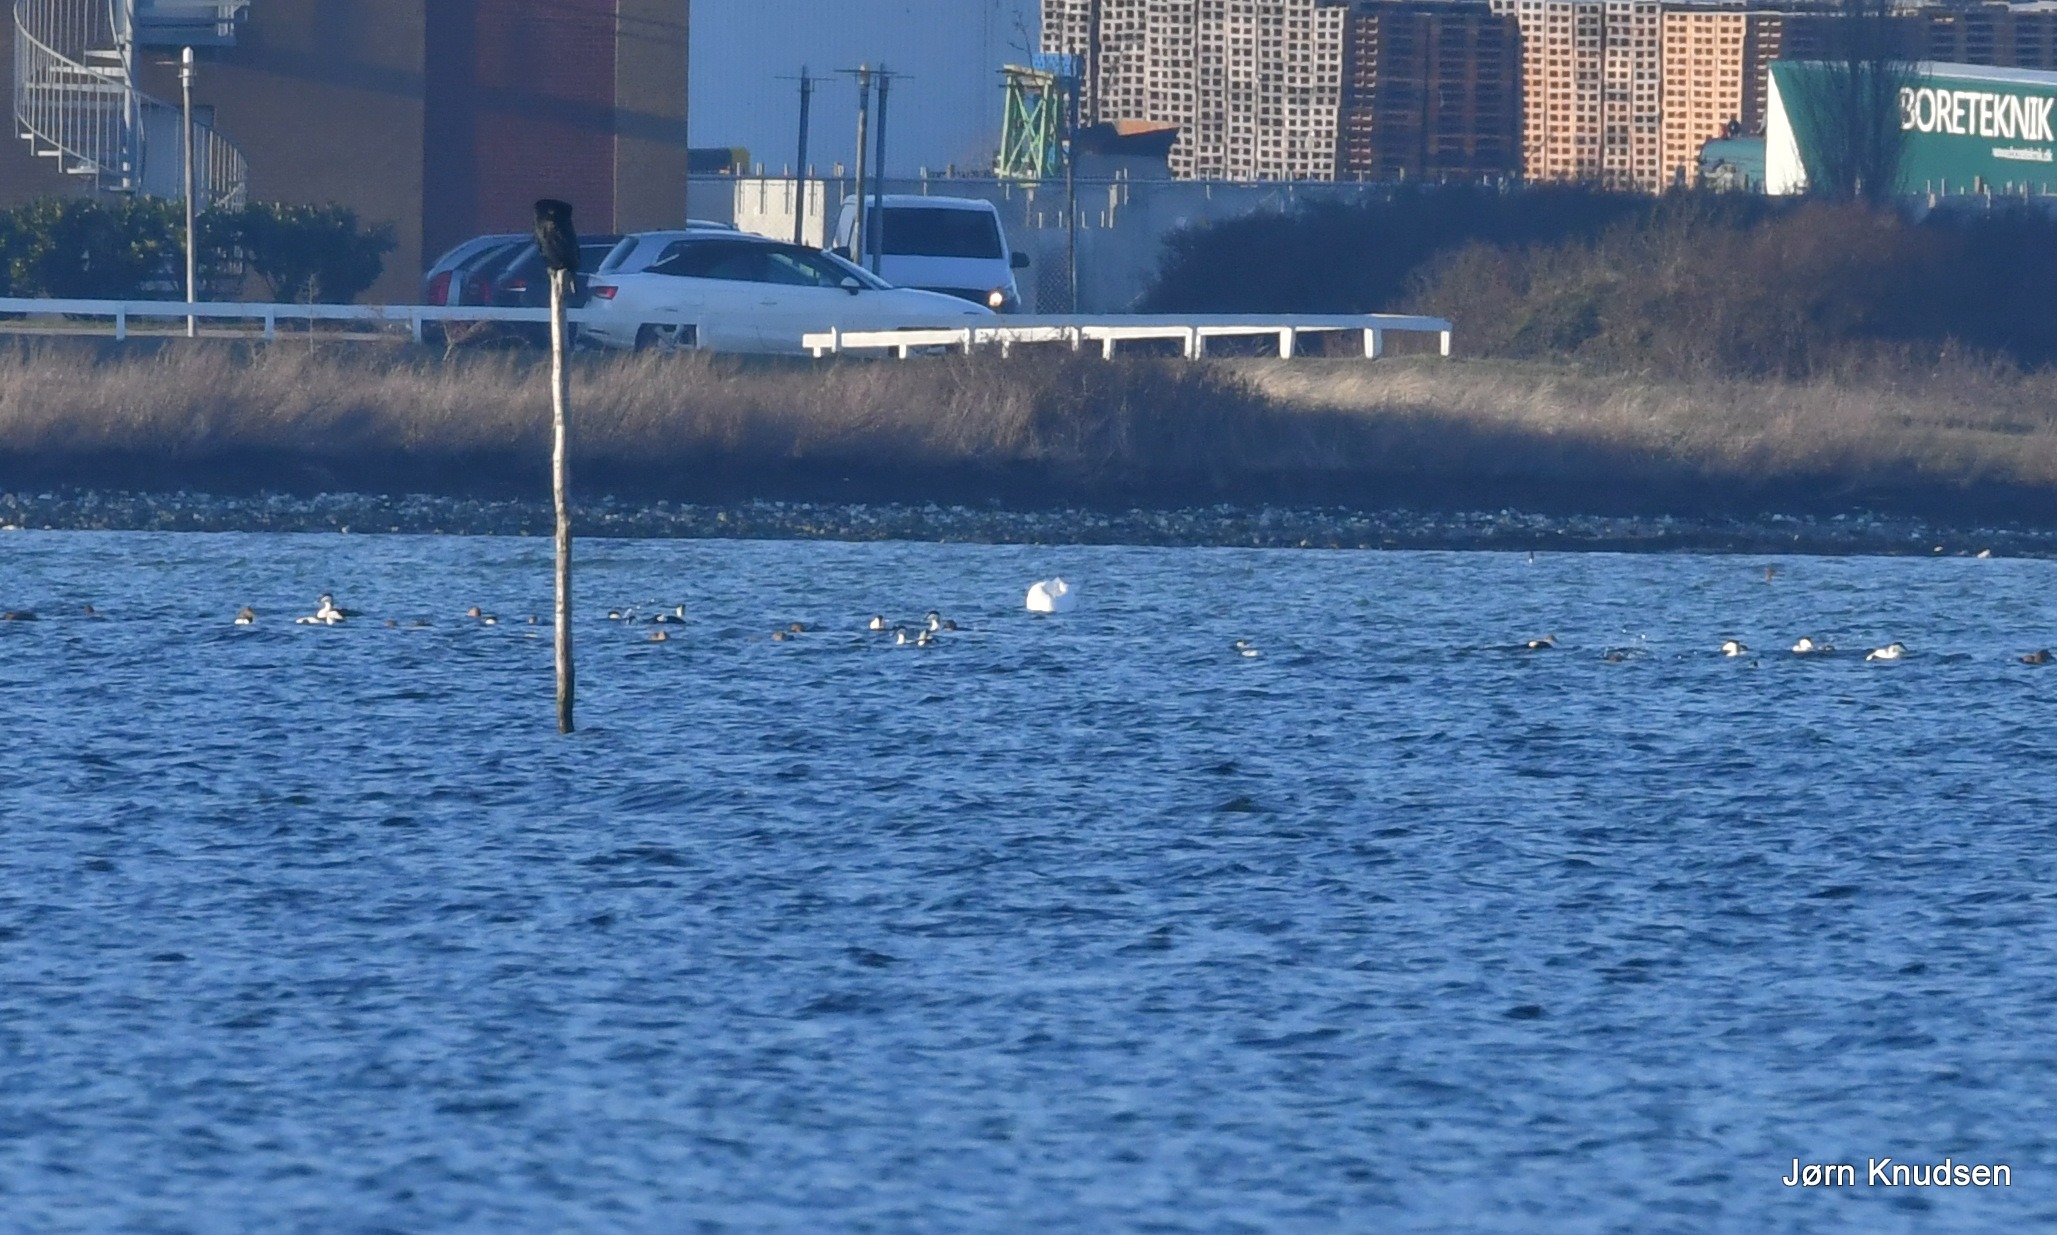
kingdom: Animalia
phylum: Chordata
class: Aves
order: Anseriformes
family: Anatidae
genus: Somateria
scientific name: Somateria mollissima
